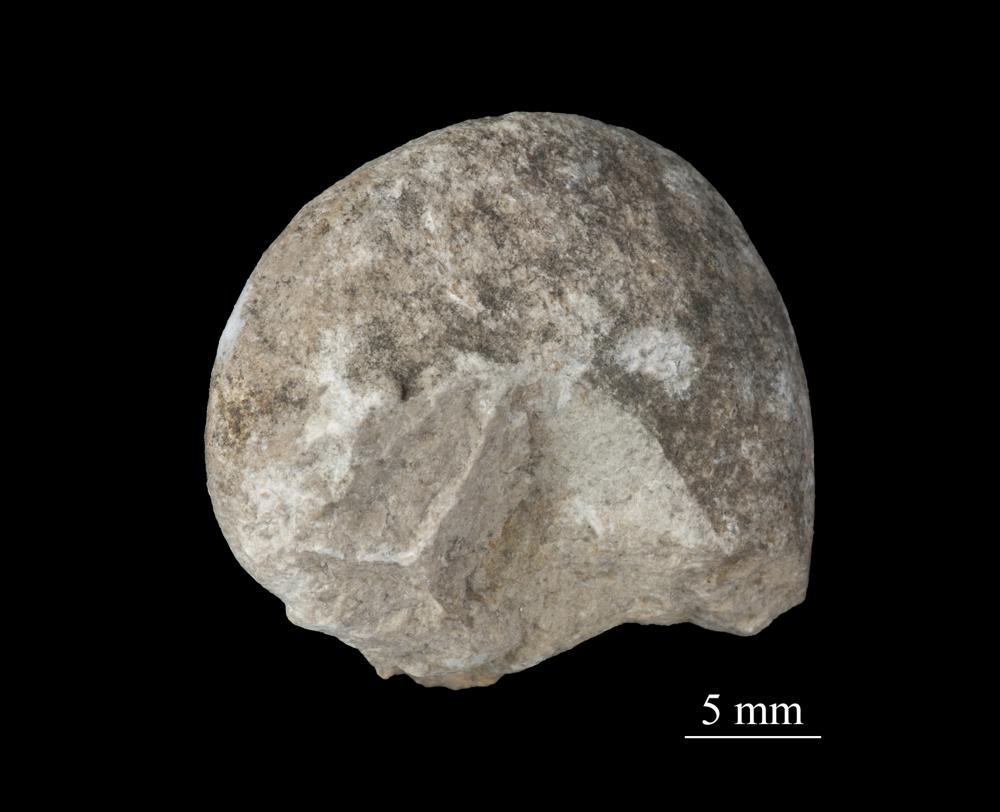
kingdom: Animalia
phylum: Mollusca
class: Gastropoda
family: Bellerophontidae
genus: Bellerophon
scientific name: Bellerophon
